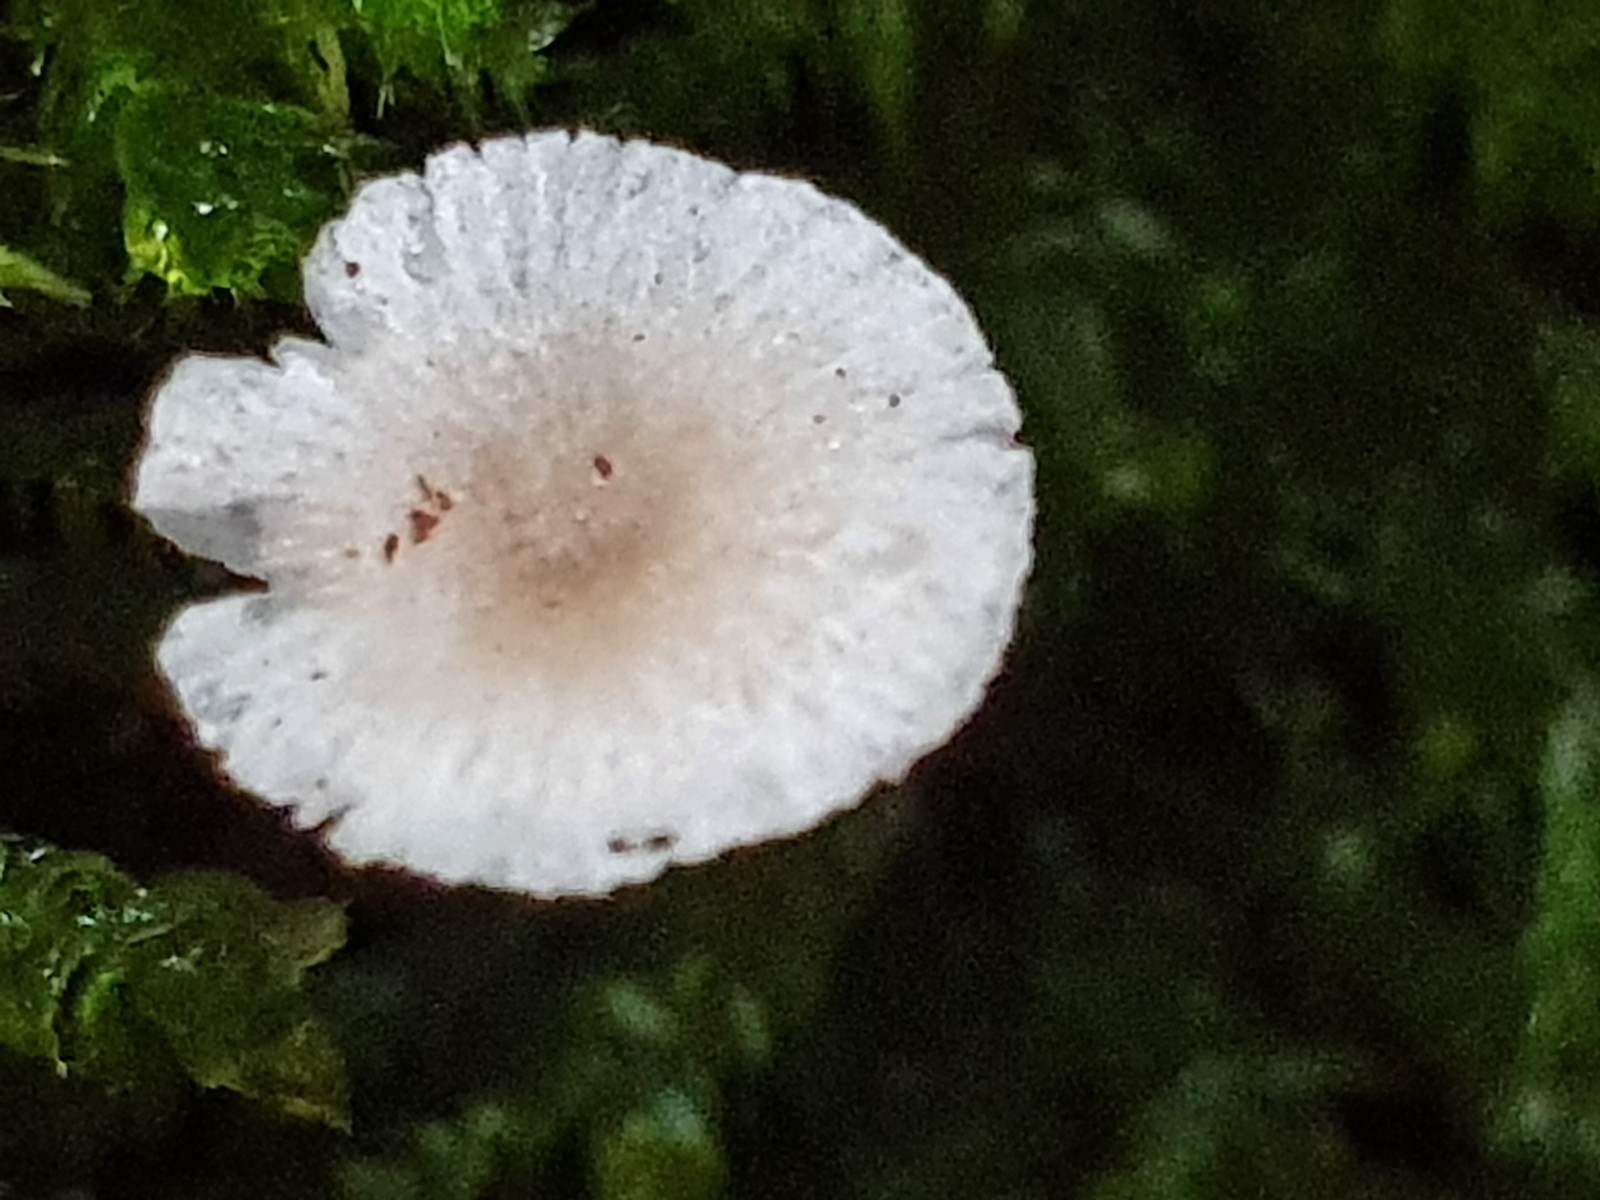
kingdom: Fungi
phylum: Basidiomycota
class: Agaricomycetes
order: Agaricales
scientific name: Agaricales
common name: champignonordenen
